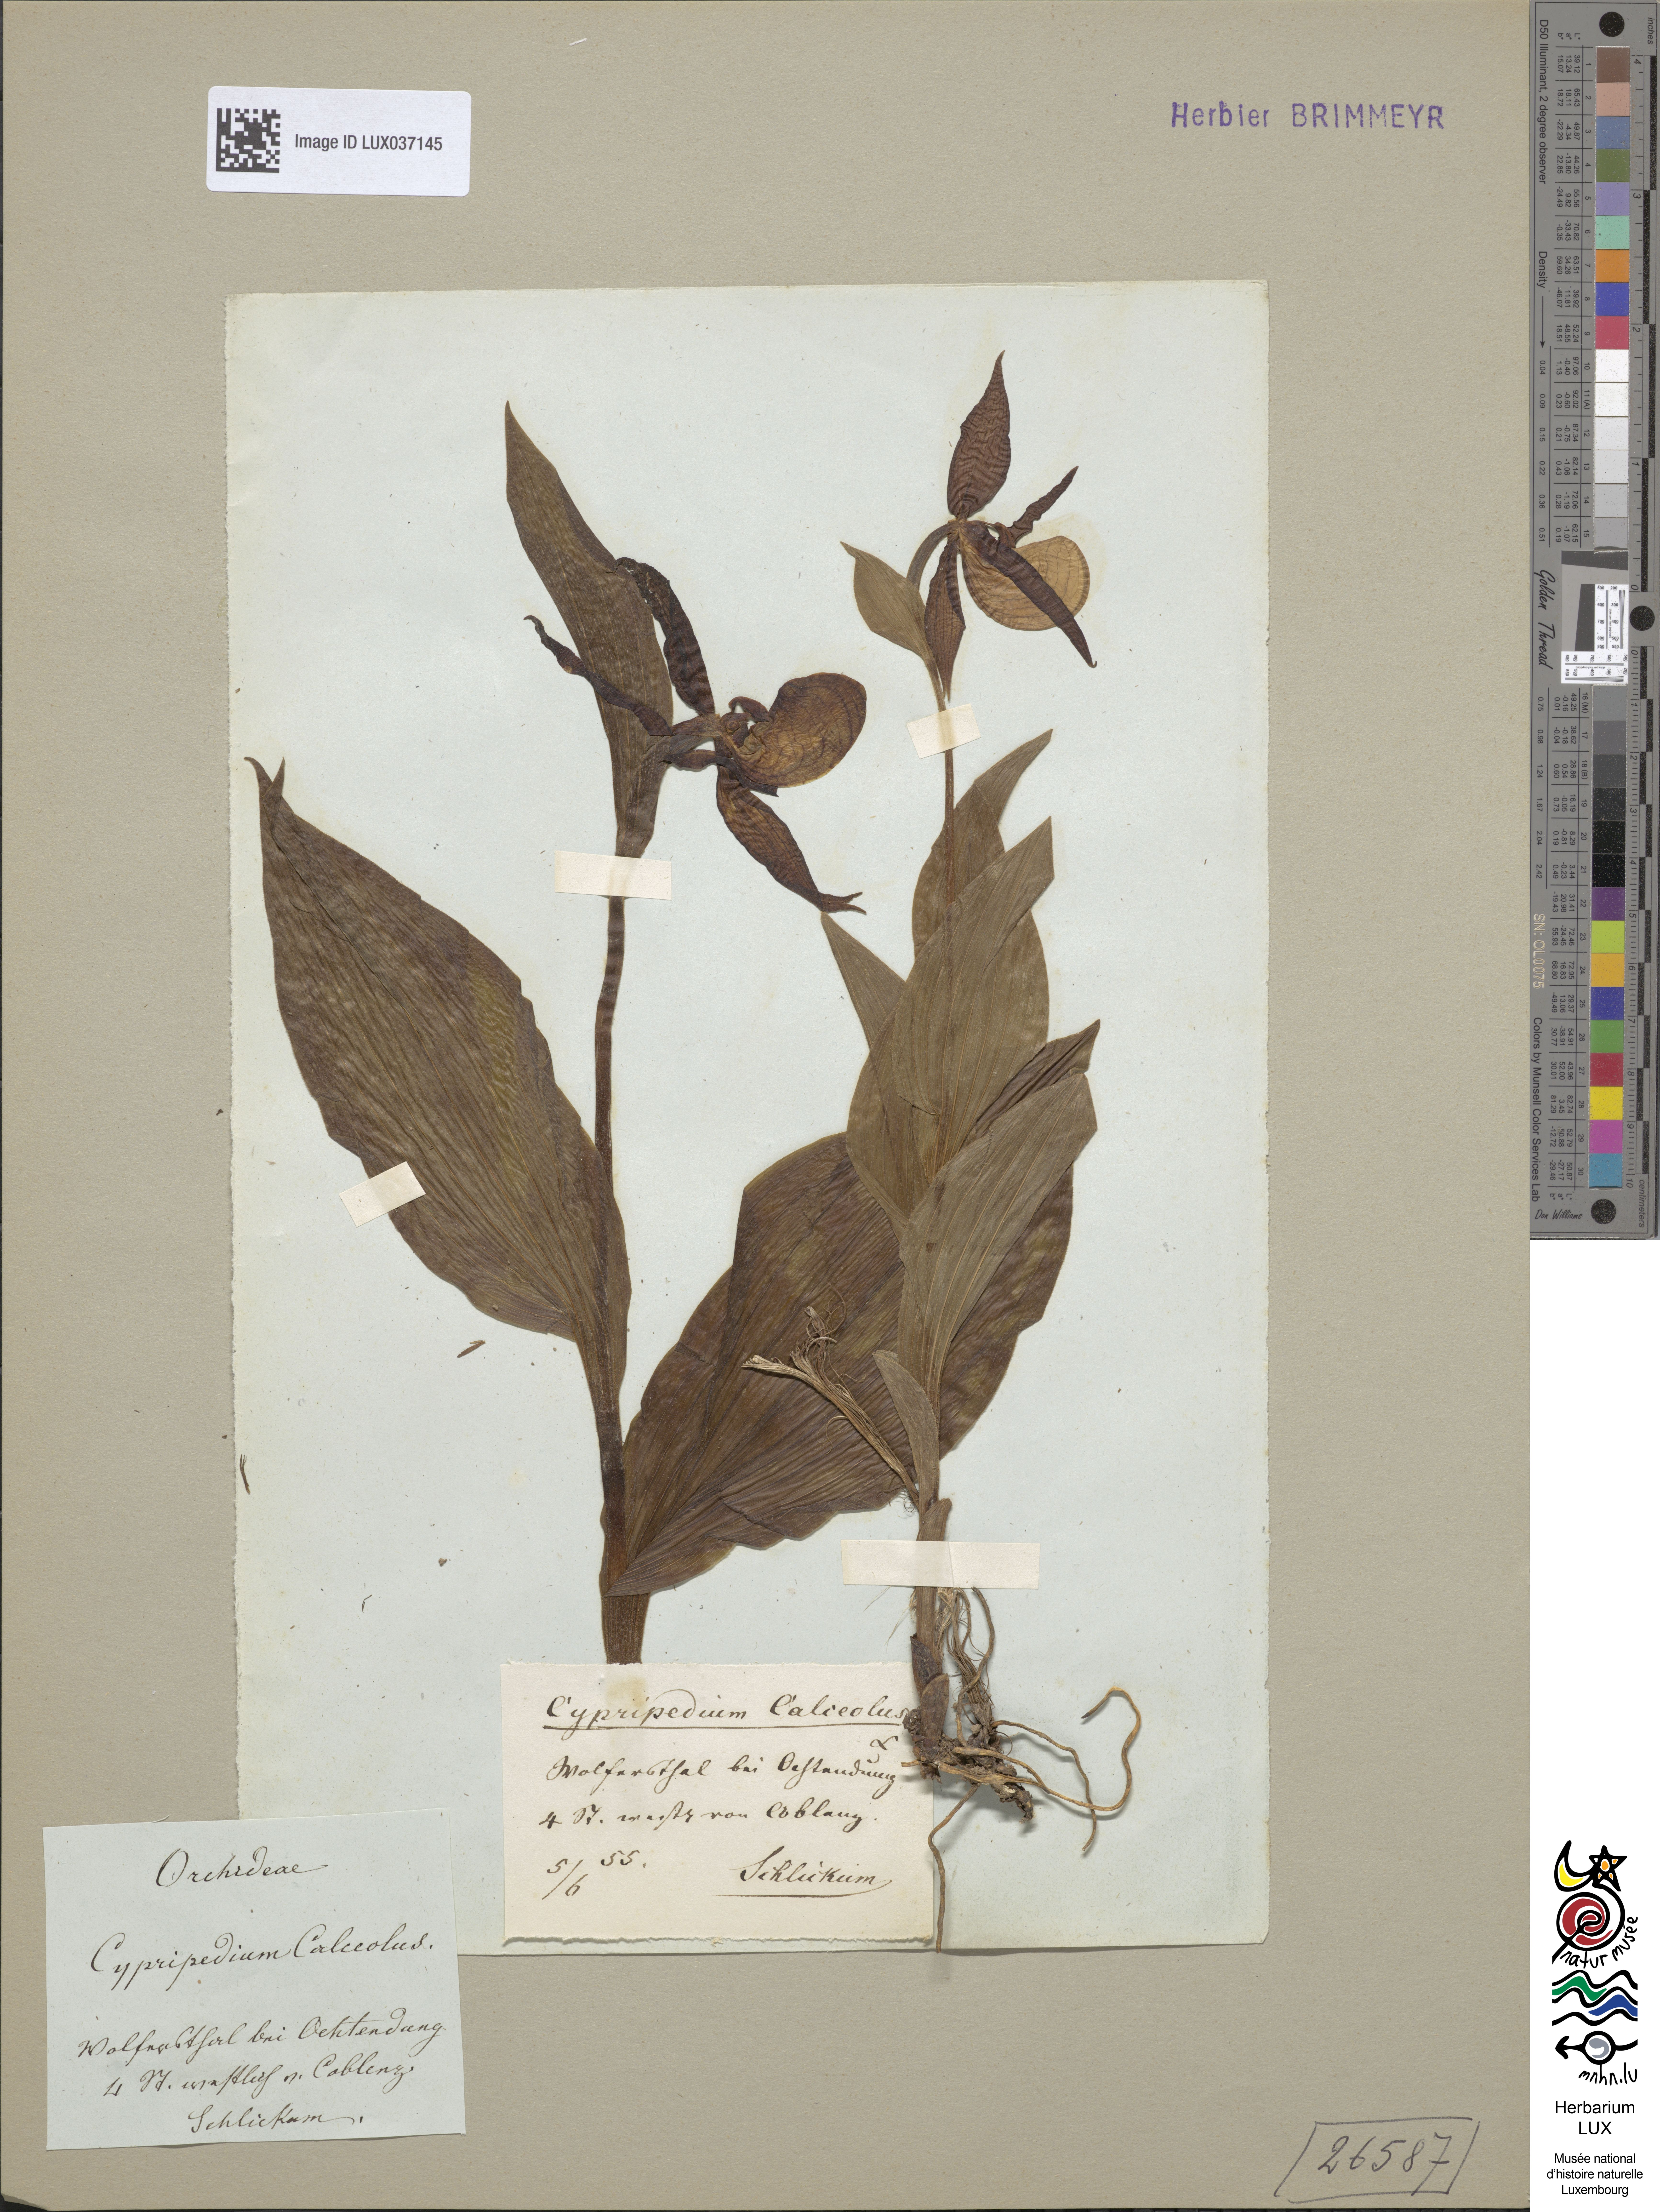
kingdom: Plantae
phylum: Tracheophyta
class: Liliopsida
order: Asparagales
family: Orchidaceae
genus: Cypripedium
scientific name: Cypripedium calceolus
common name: Lady's-slipper
